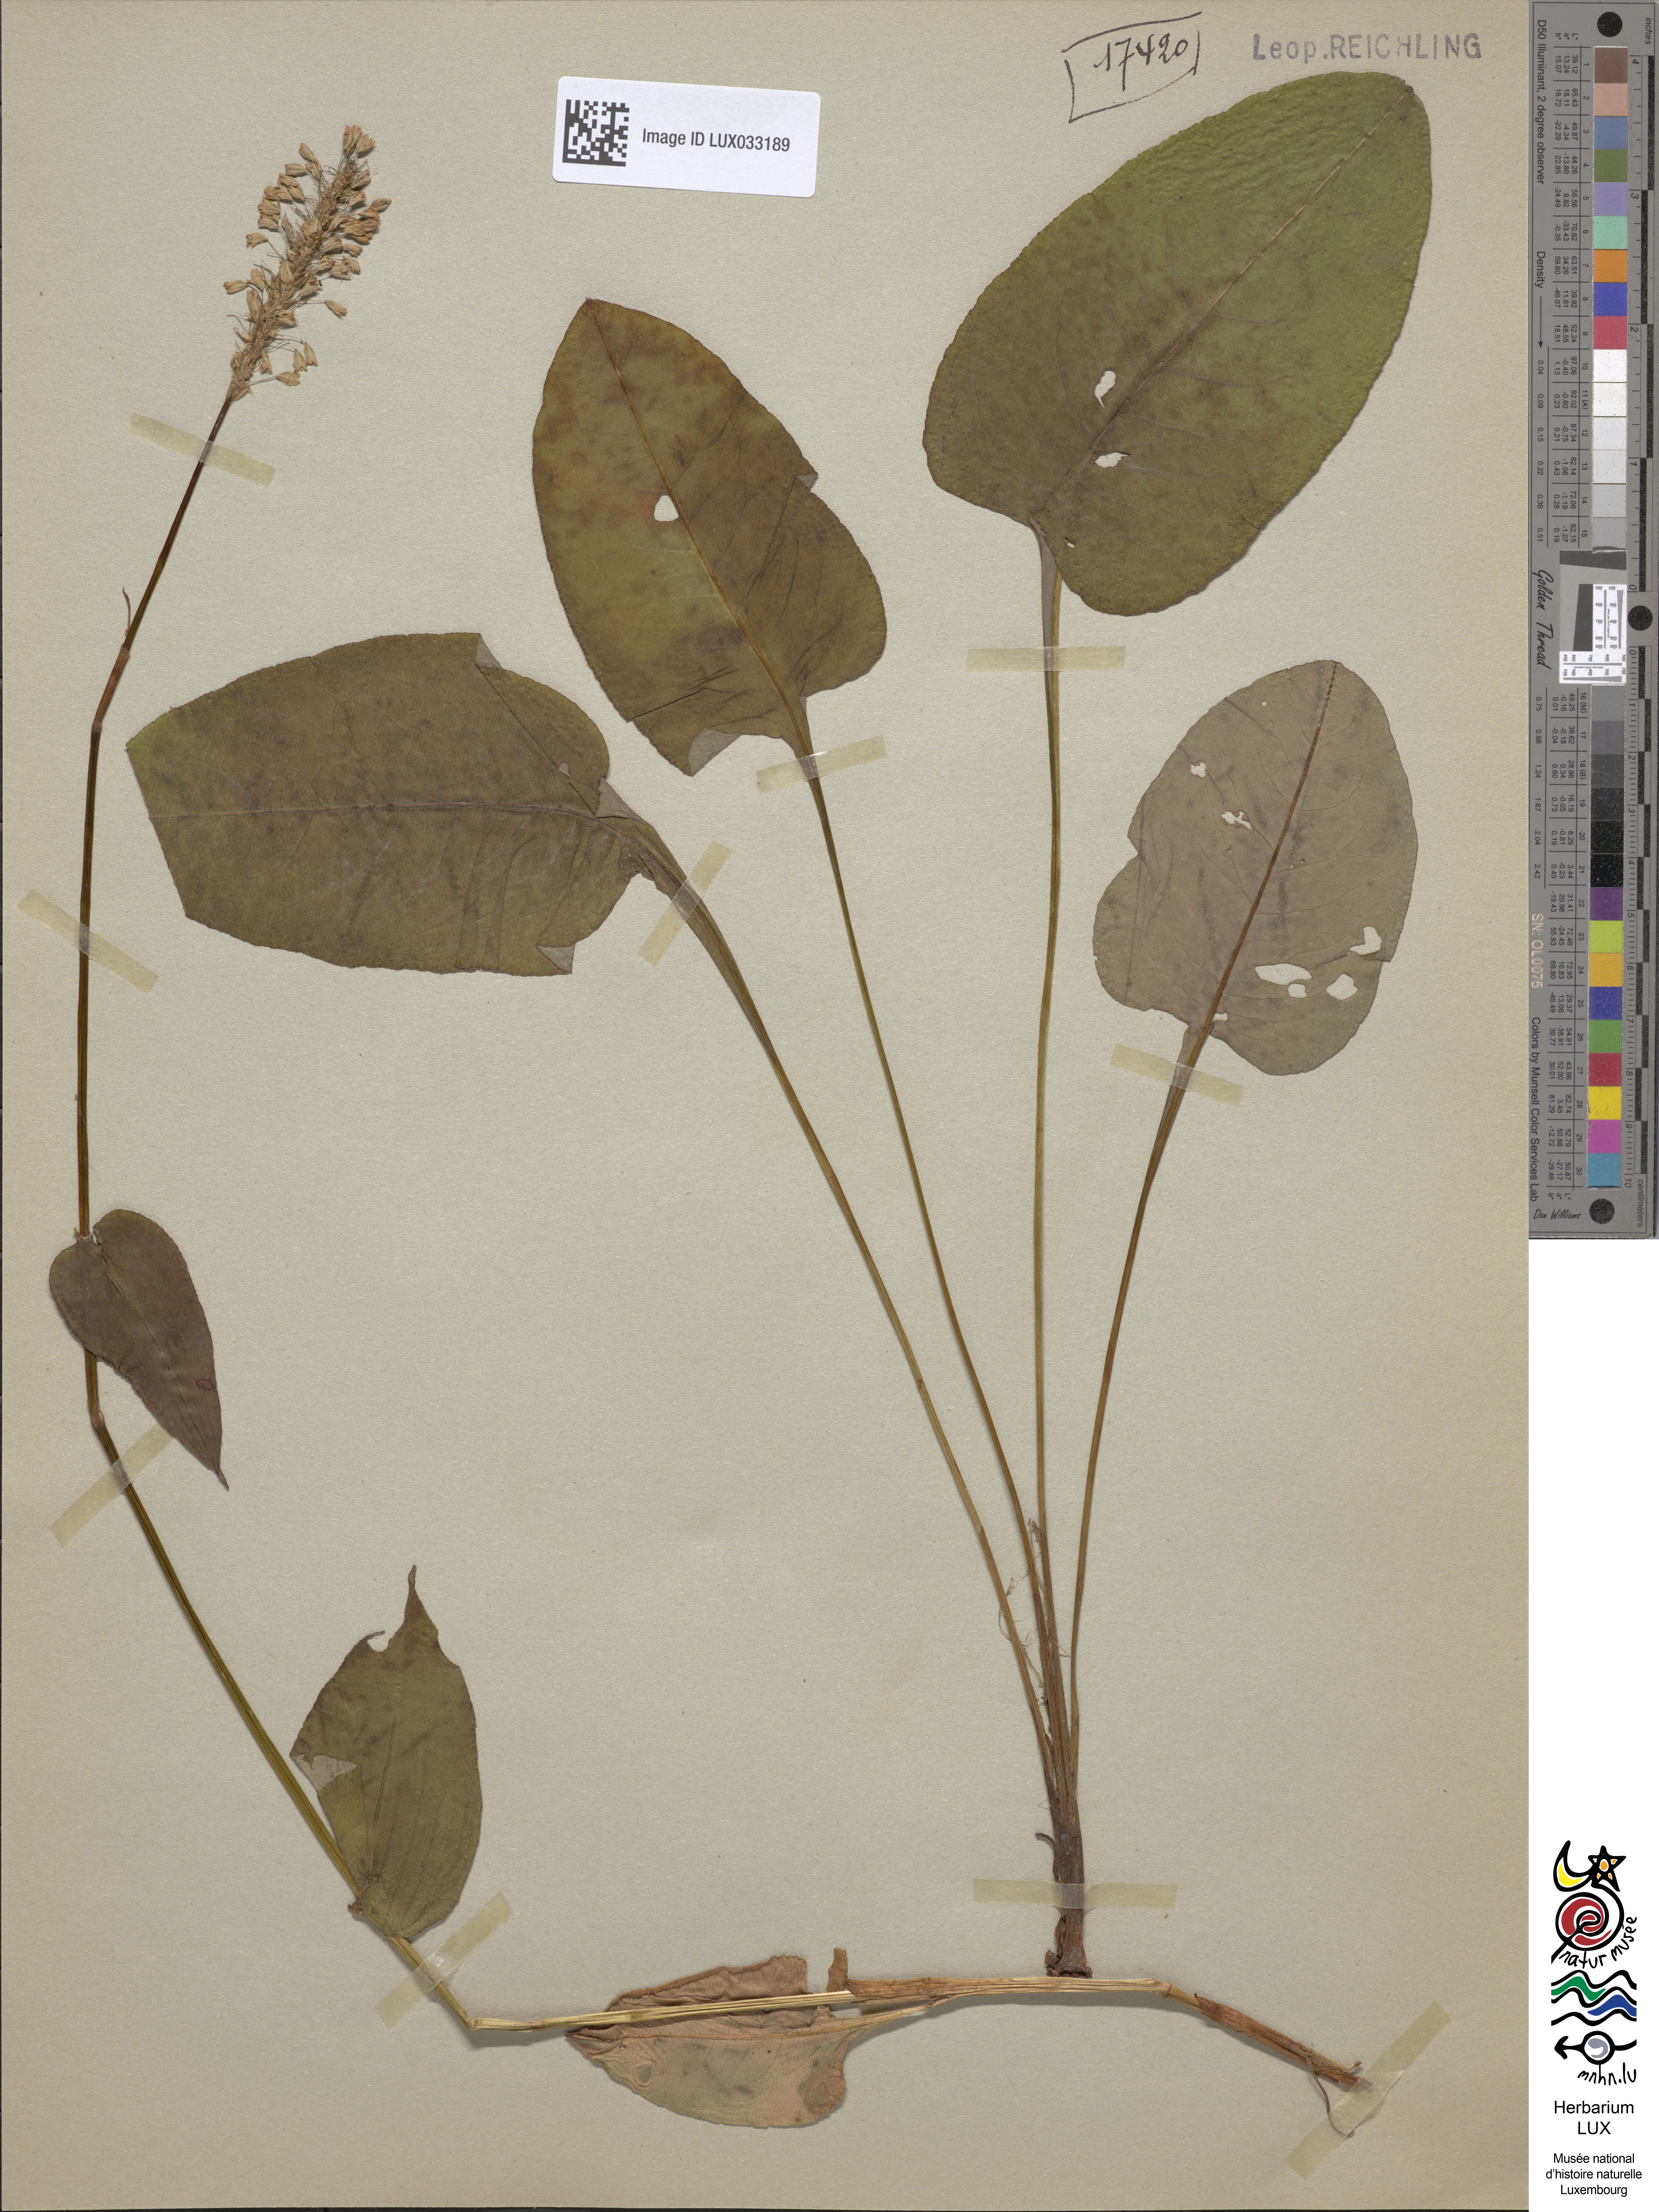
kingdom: Plantae
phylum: Tracheophyta
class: Magnoliopsida
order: Caryophyllales
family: Polygonaceae
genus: Bistorta
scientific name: Bistorta officinalis
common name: Common bistort
